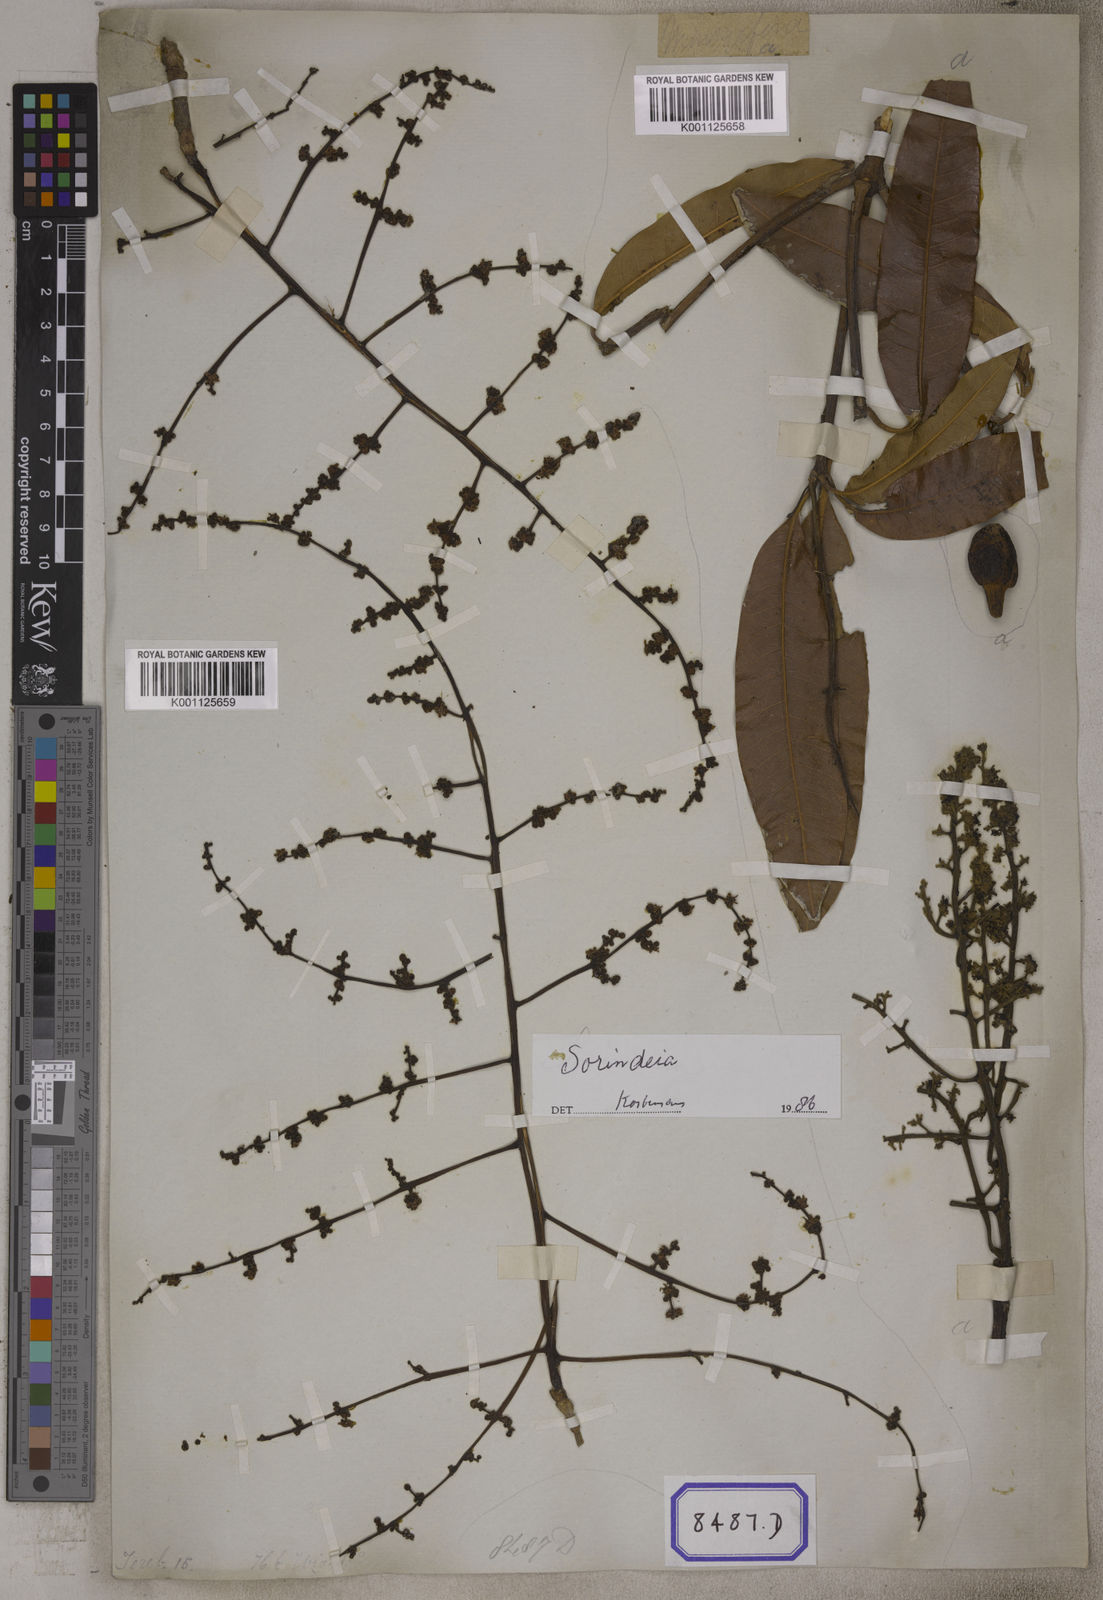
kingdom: Plantae
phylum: Tracheophyta
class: Magnoliopsida
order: Sapindales
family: Anacardiaceae
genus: Mangifera
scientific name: Mangifera indica
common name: Mango
